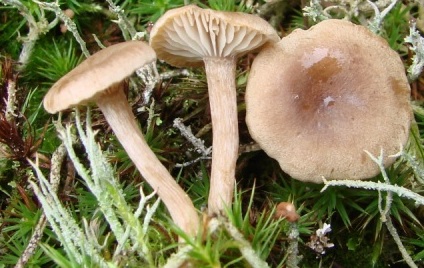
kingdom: Fungi
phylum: Basidiomycota
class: Agaricomycetes
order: Agaricales
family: Callistosporiaceae
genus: Pseudolaccaria
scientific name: Pseudolaccaria pachyphylla
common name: hvælvet tykblad
